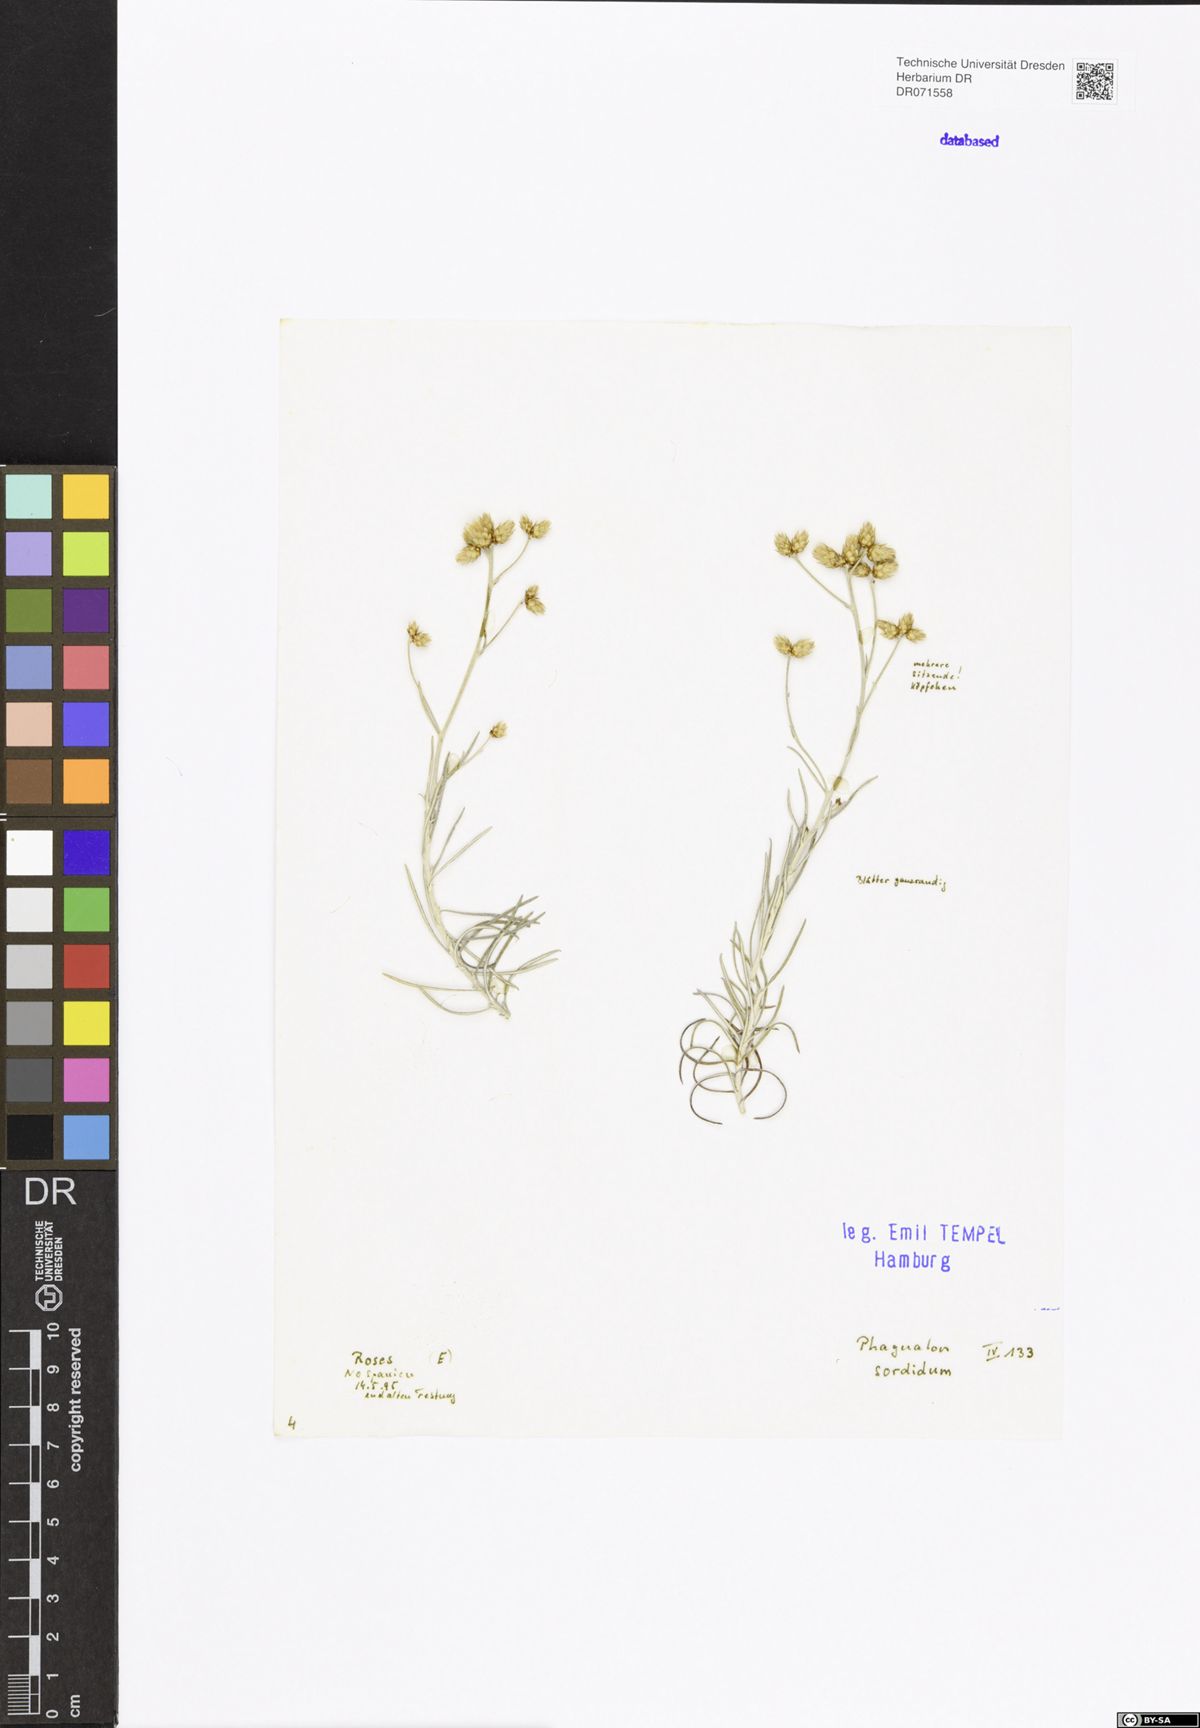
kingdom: Plantae
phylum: Tracheophyta
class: Magnoliopsida
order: Asterales
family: Asteraceae
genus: Phagnalon
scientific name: Phagnalon sordidum
